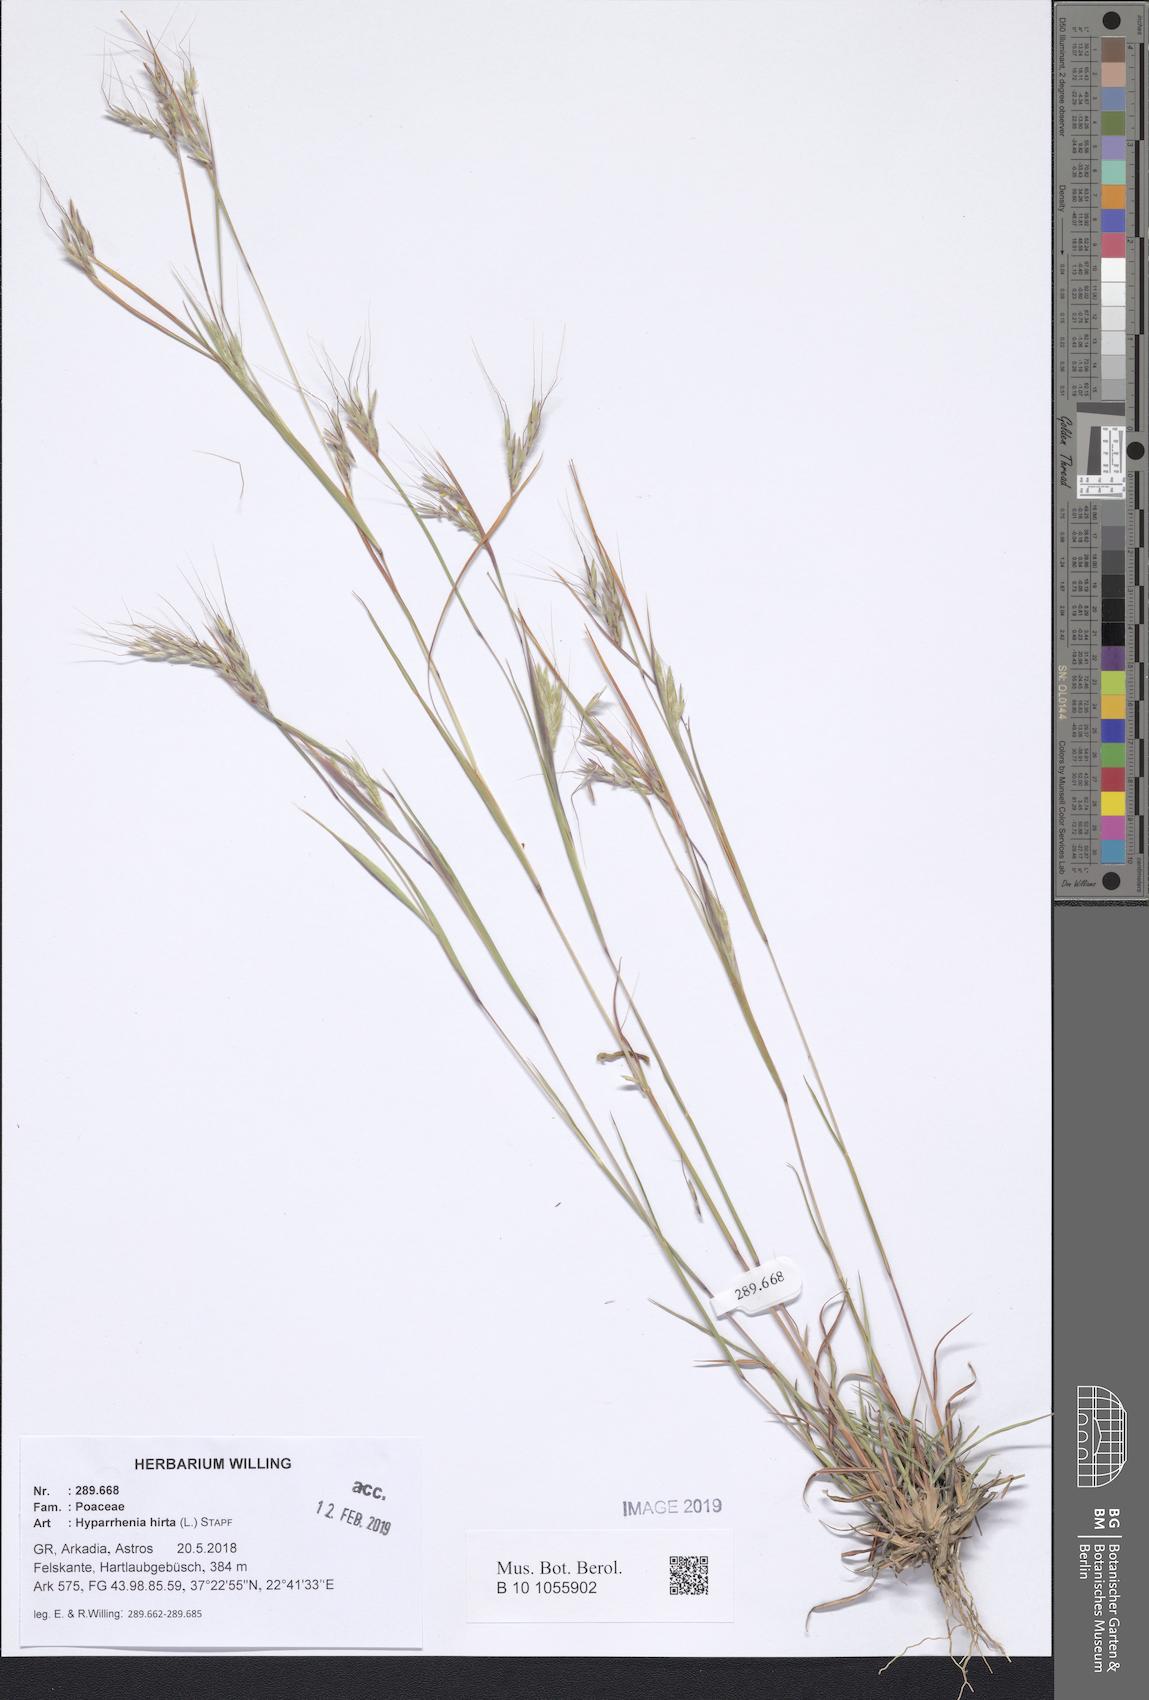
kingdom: Plantae
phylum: Tracheophyta
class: Liliopsida
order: Poales
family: Poaceae
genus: Hyparrhenia
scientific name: Hyparrhenia hirta
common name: Thatching grass
